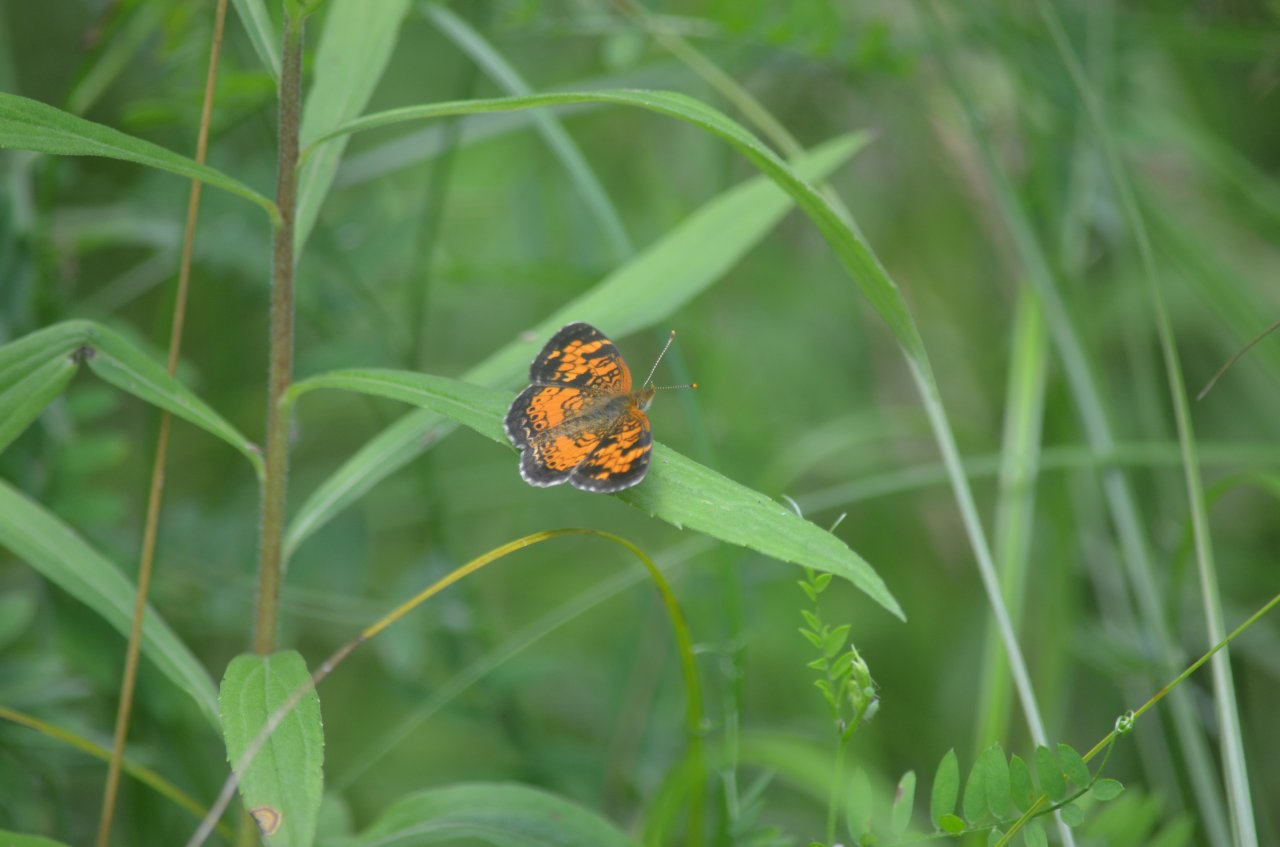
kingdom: Animalia
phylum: Arthropoda
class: Insecta
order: Lepidoptera
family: Nymphalidae
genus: Phyciodes
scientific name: Phyciodes tharos
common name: Northern Crescent
